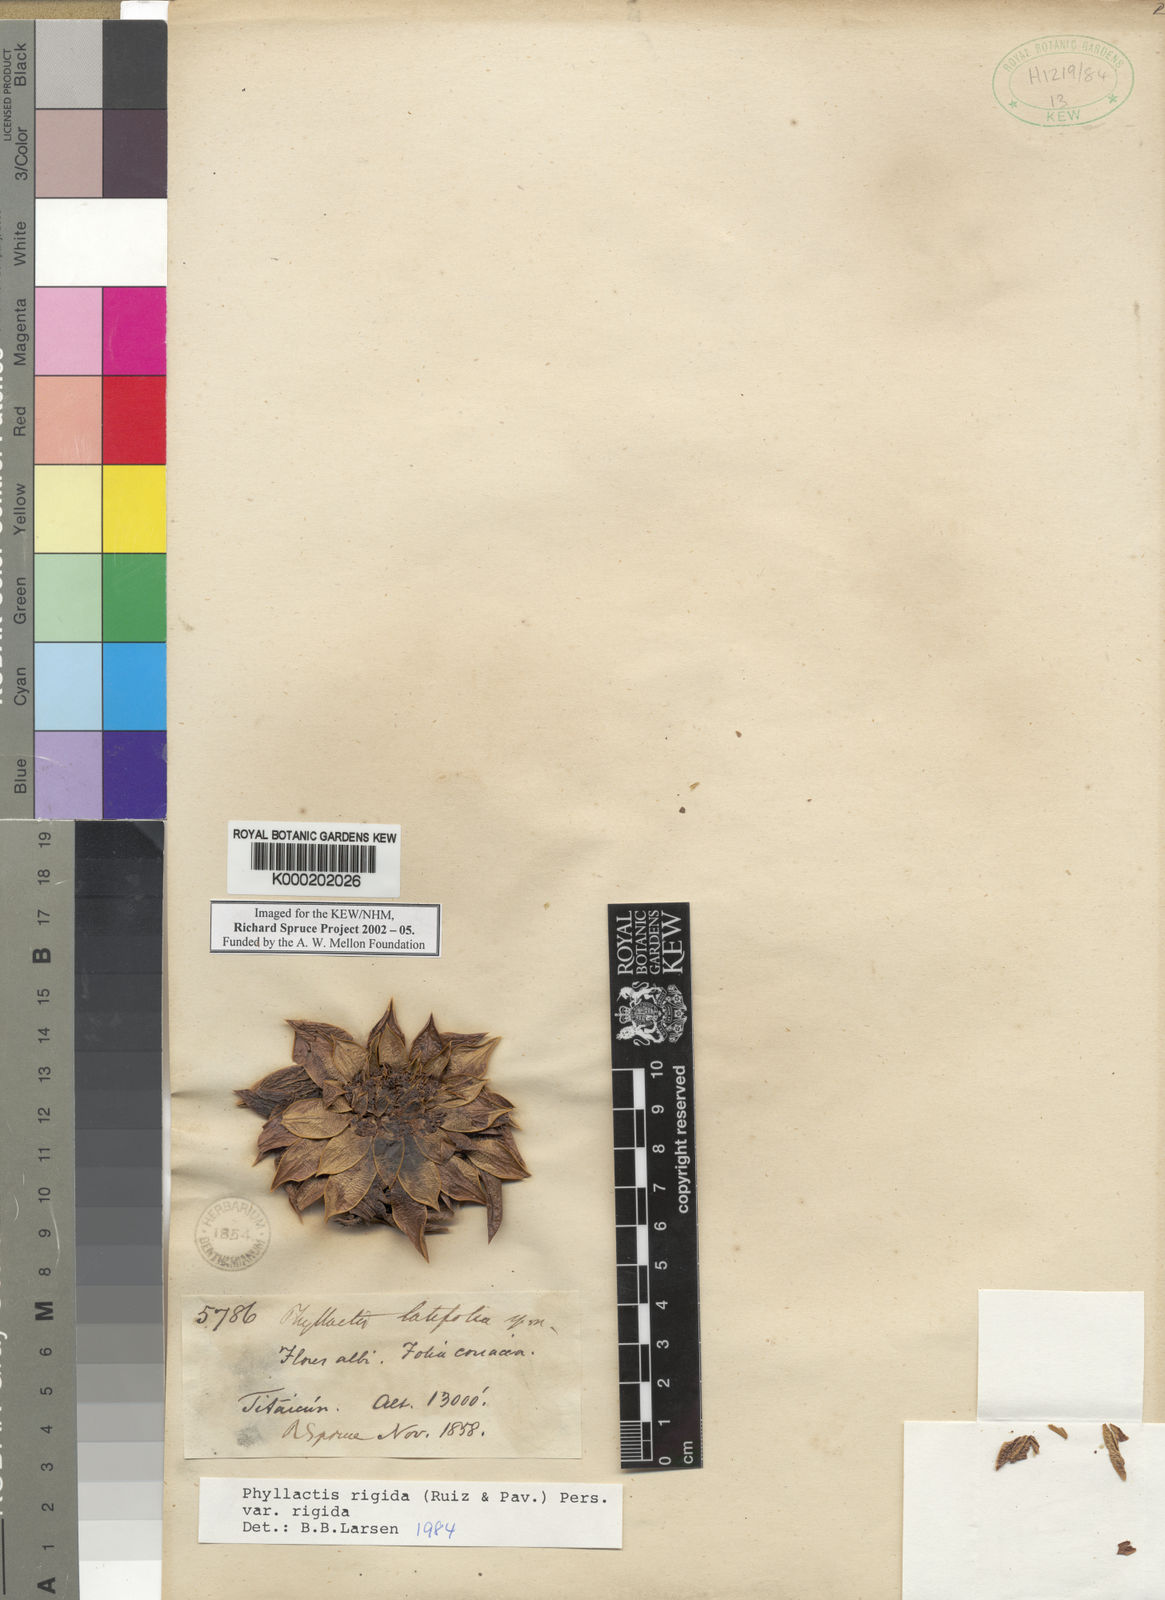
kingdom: Plantae
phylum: Tracheophyta
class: Magnoliopsida
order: Dipsacales
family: Caprifoliaceae
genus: Valeriana
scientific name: Valeriana rigida
